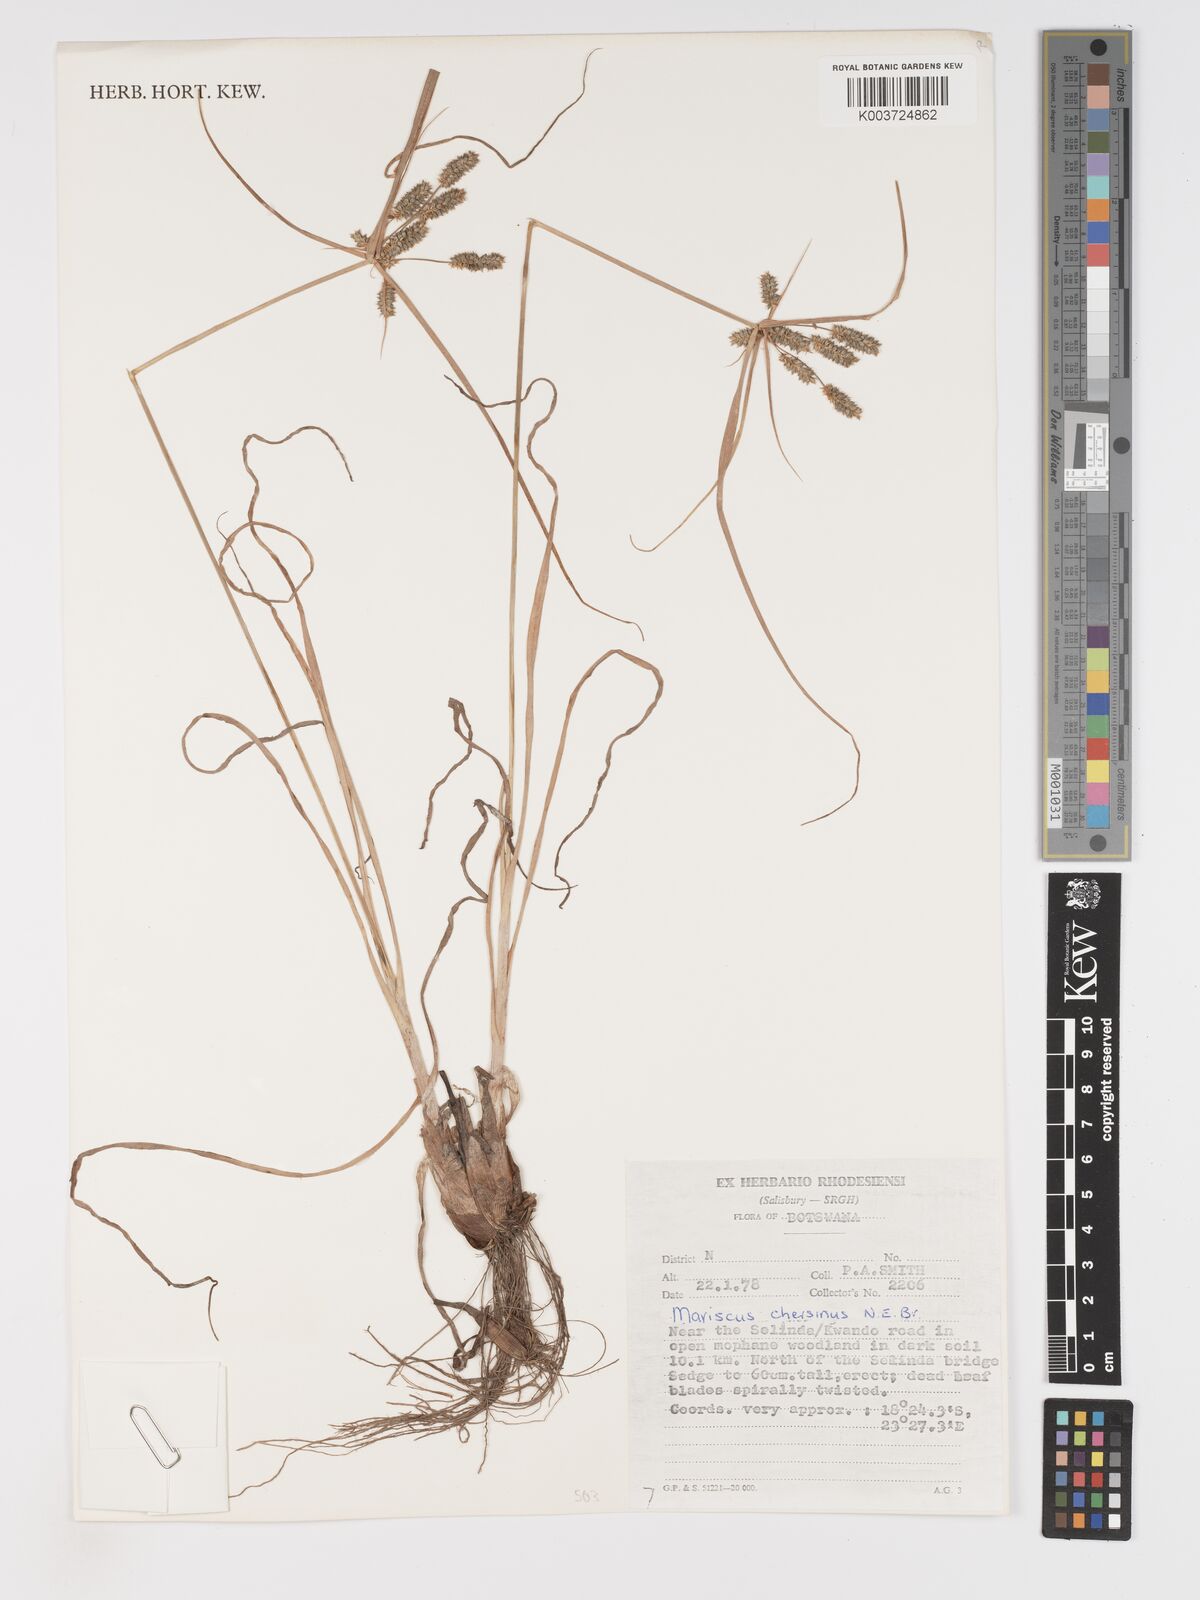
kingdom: Plantae
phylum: Tracheophyta
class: Liliopsida
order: Poales
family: Cyperaceae
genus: Cyperus
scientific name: Cyperus chersinus
